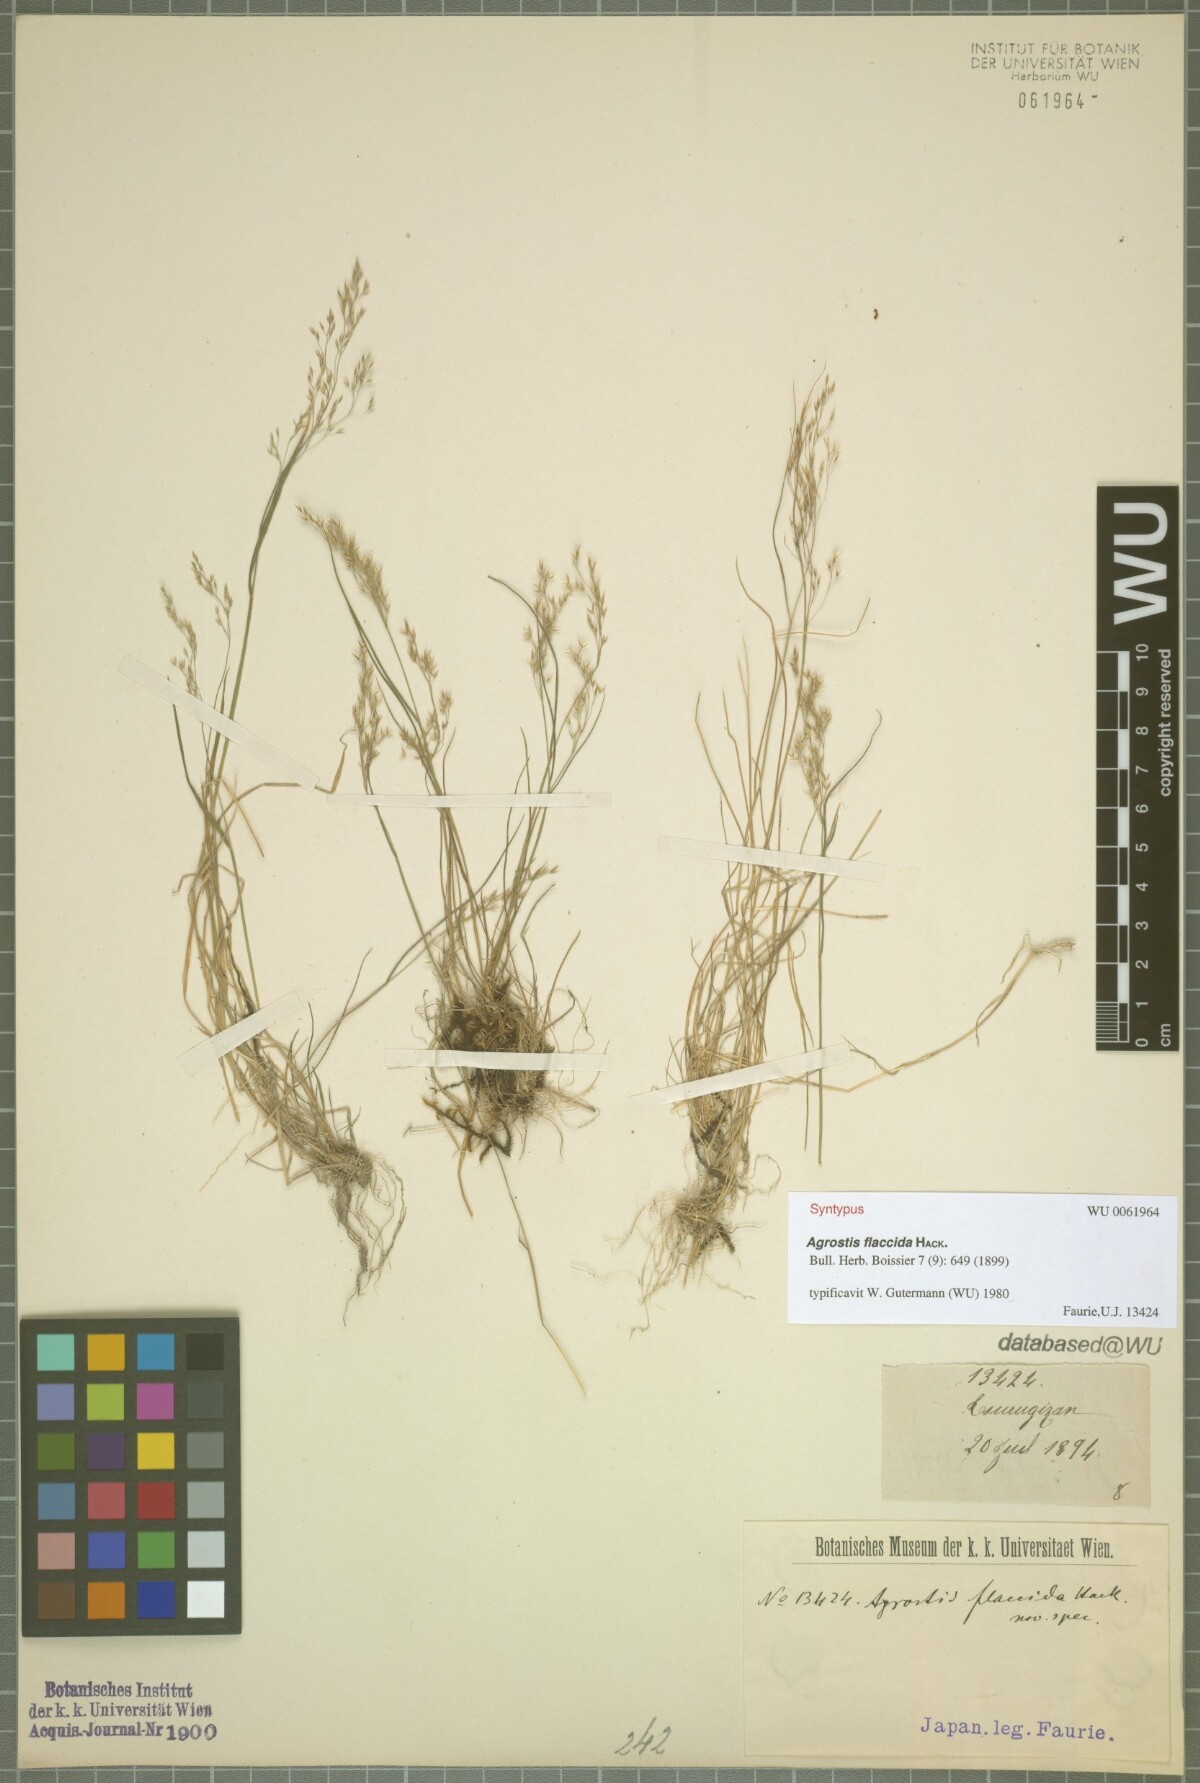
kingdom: Plantae
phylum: Tracheophyta
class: Liliopsida
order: Poales
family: Poaceae
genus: Agrostis
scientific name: Agrostis flaccida
